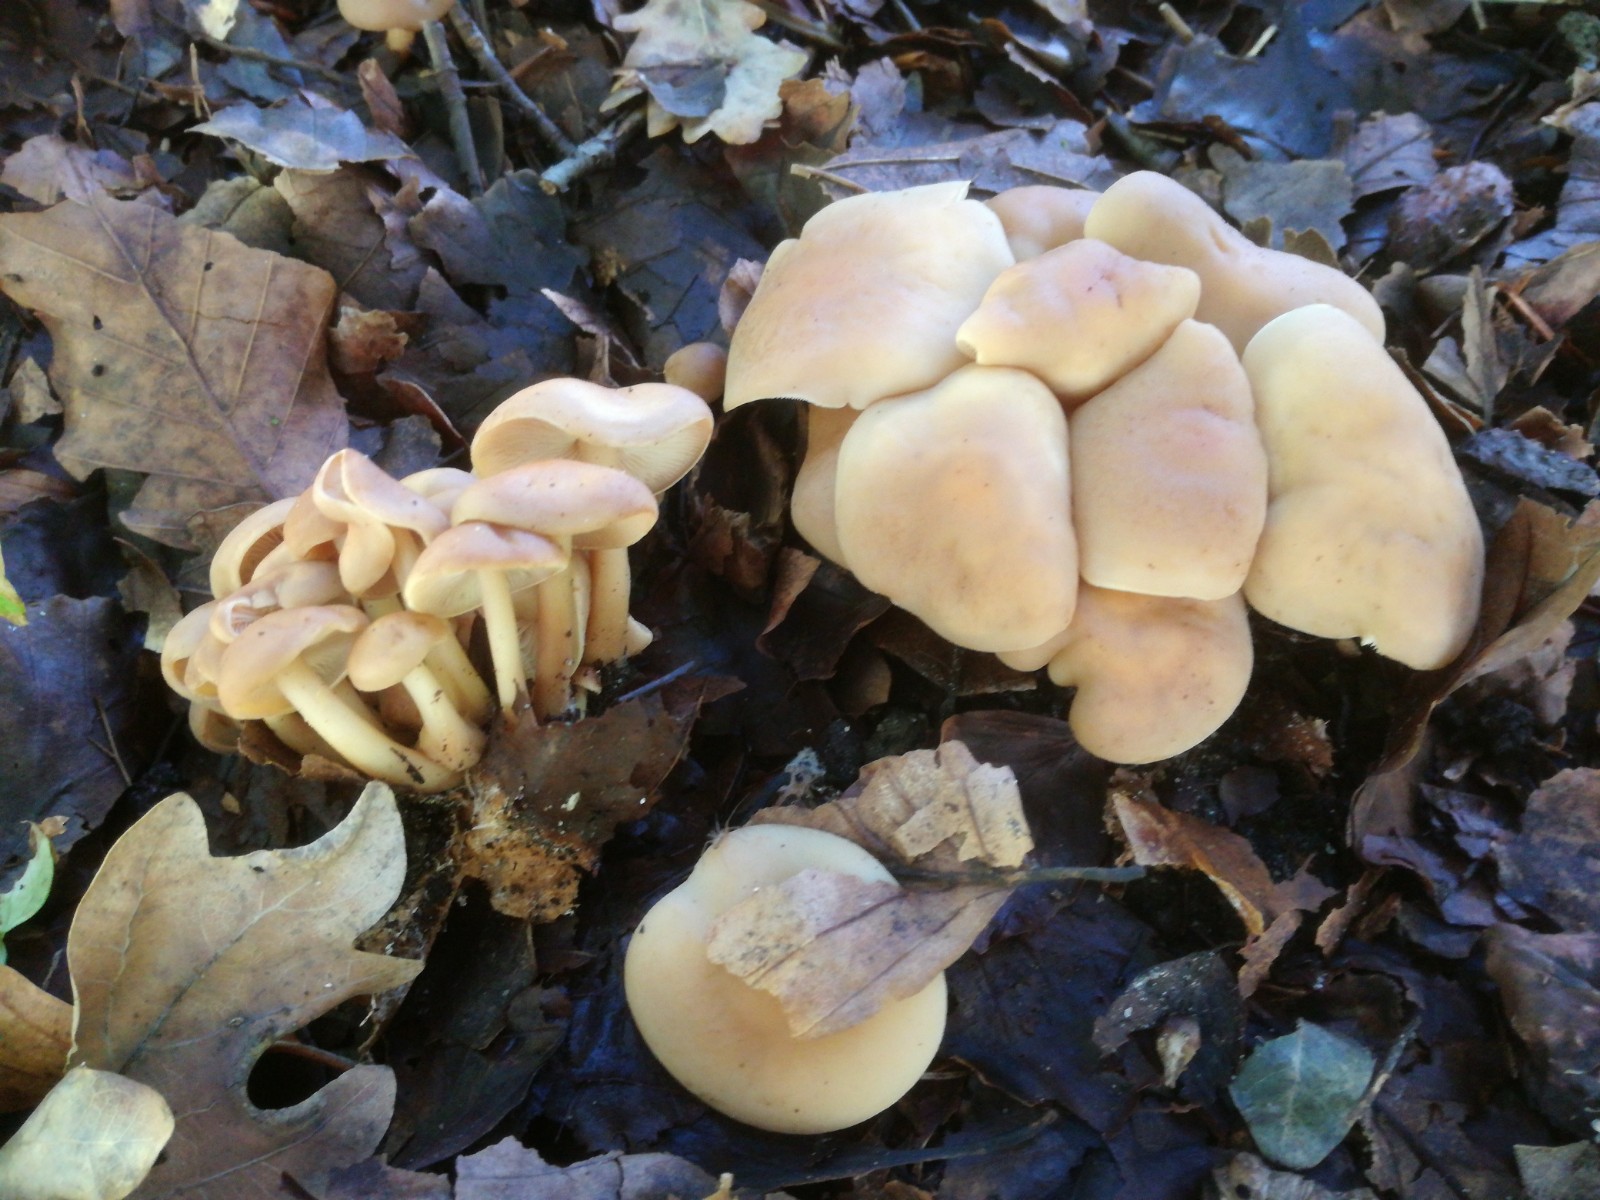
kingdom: Fungi
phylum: Basidiomycota
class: Agaricomycetes
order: Agaricales
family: Omphalotaceae
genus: Gymnopus
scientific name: Gymnopus aquosus
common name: bleg fladhat
